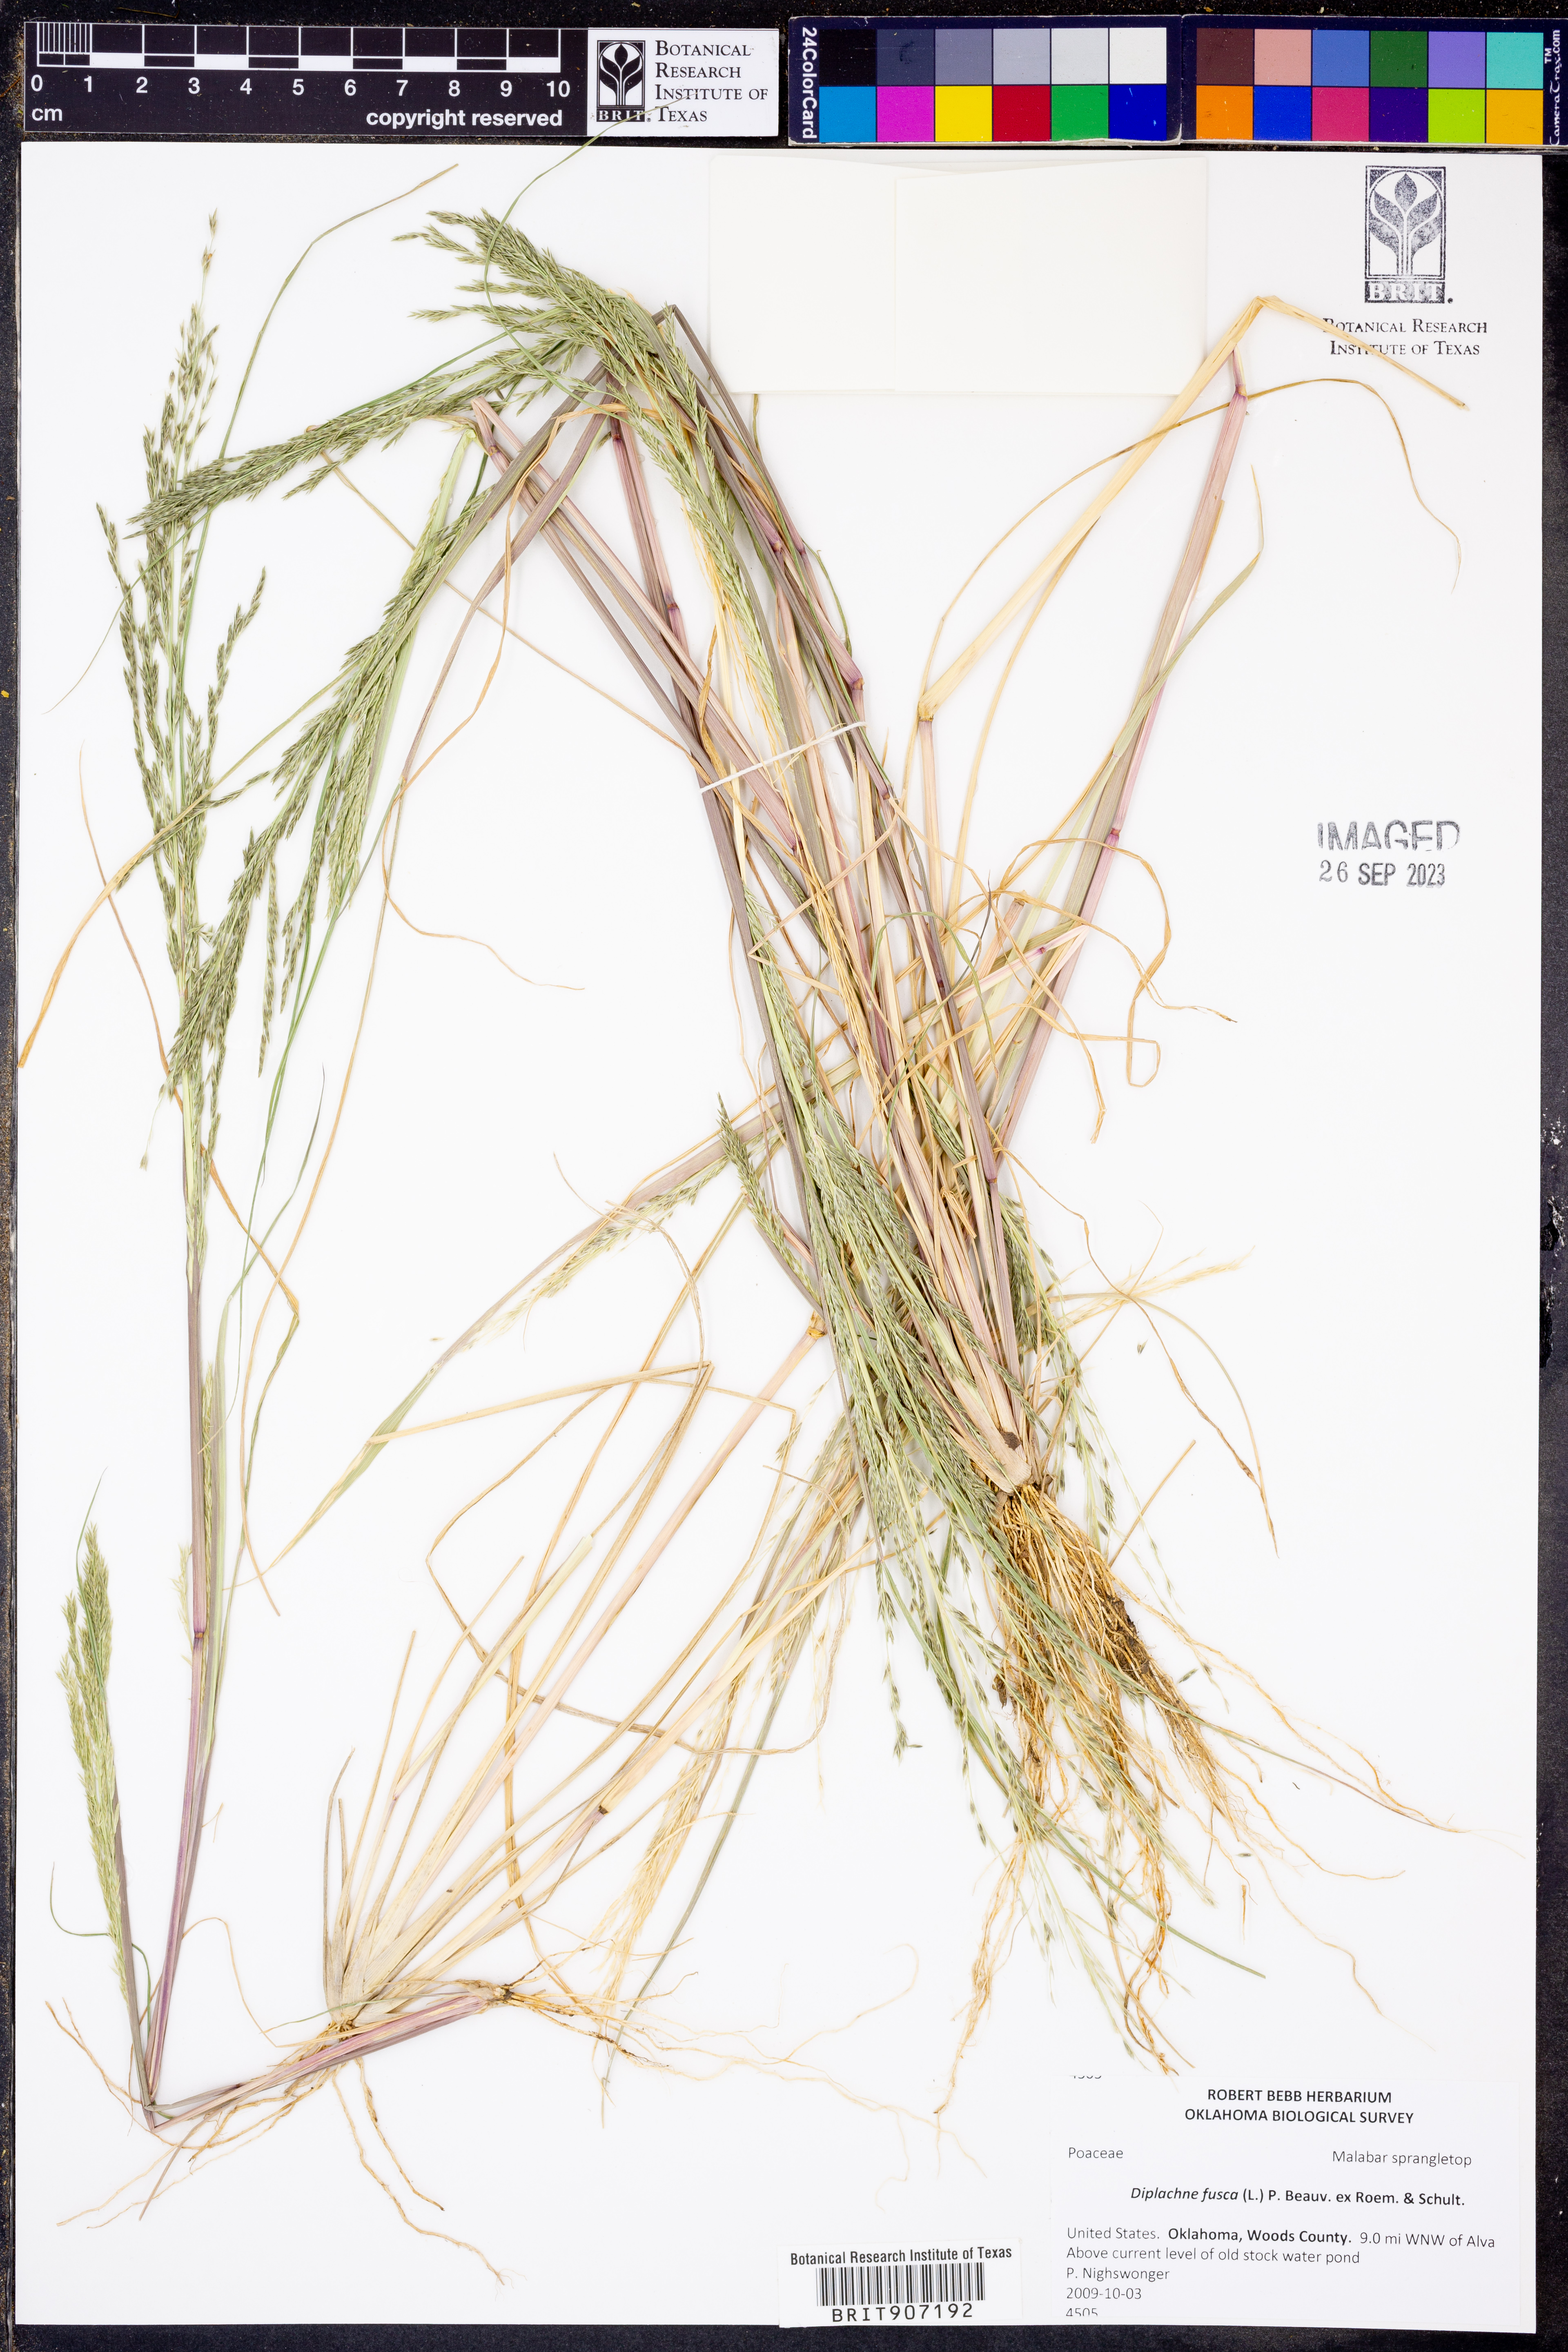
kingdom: Plantae
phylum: Tracheophyta
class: Liliopsida
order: Poales
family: Poaceae
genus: Diplachne
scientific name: Diplachne fusca
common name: Brown beetle grass
